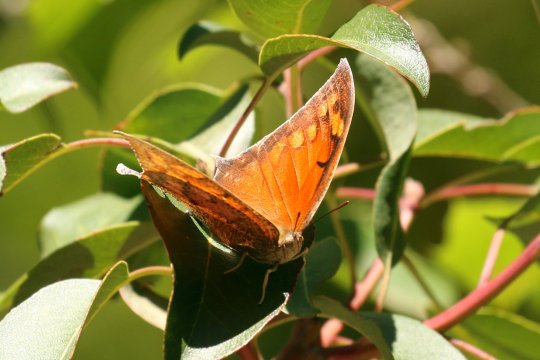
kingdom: Animalia
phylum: Arthropoda
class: Insecta
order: Lepidoptera
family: Nymphalidae
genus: Anaea
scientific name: Anaea aidea
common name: Tropical Leafwing
